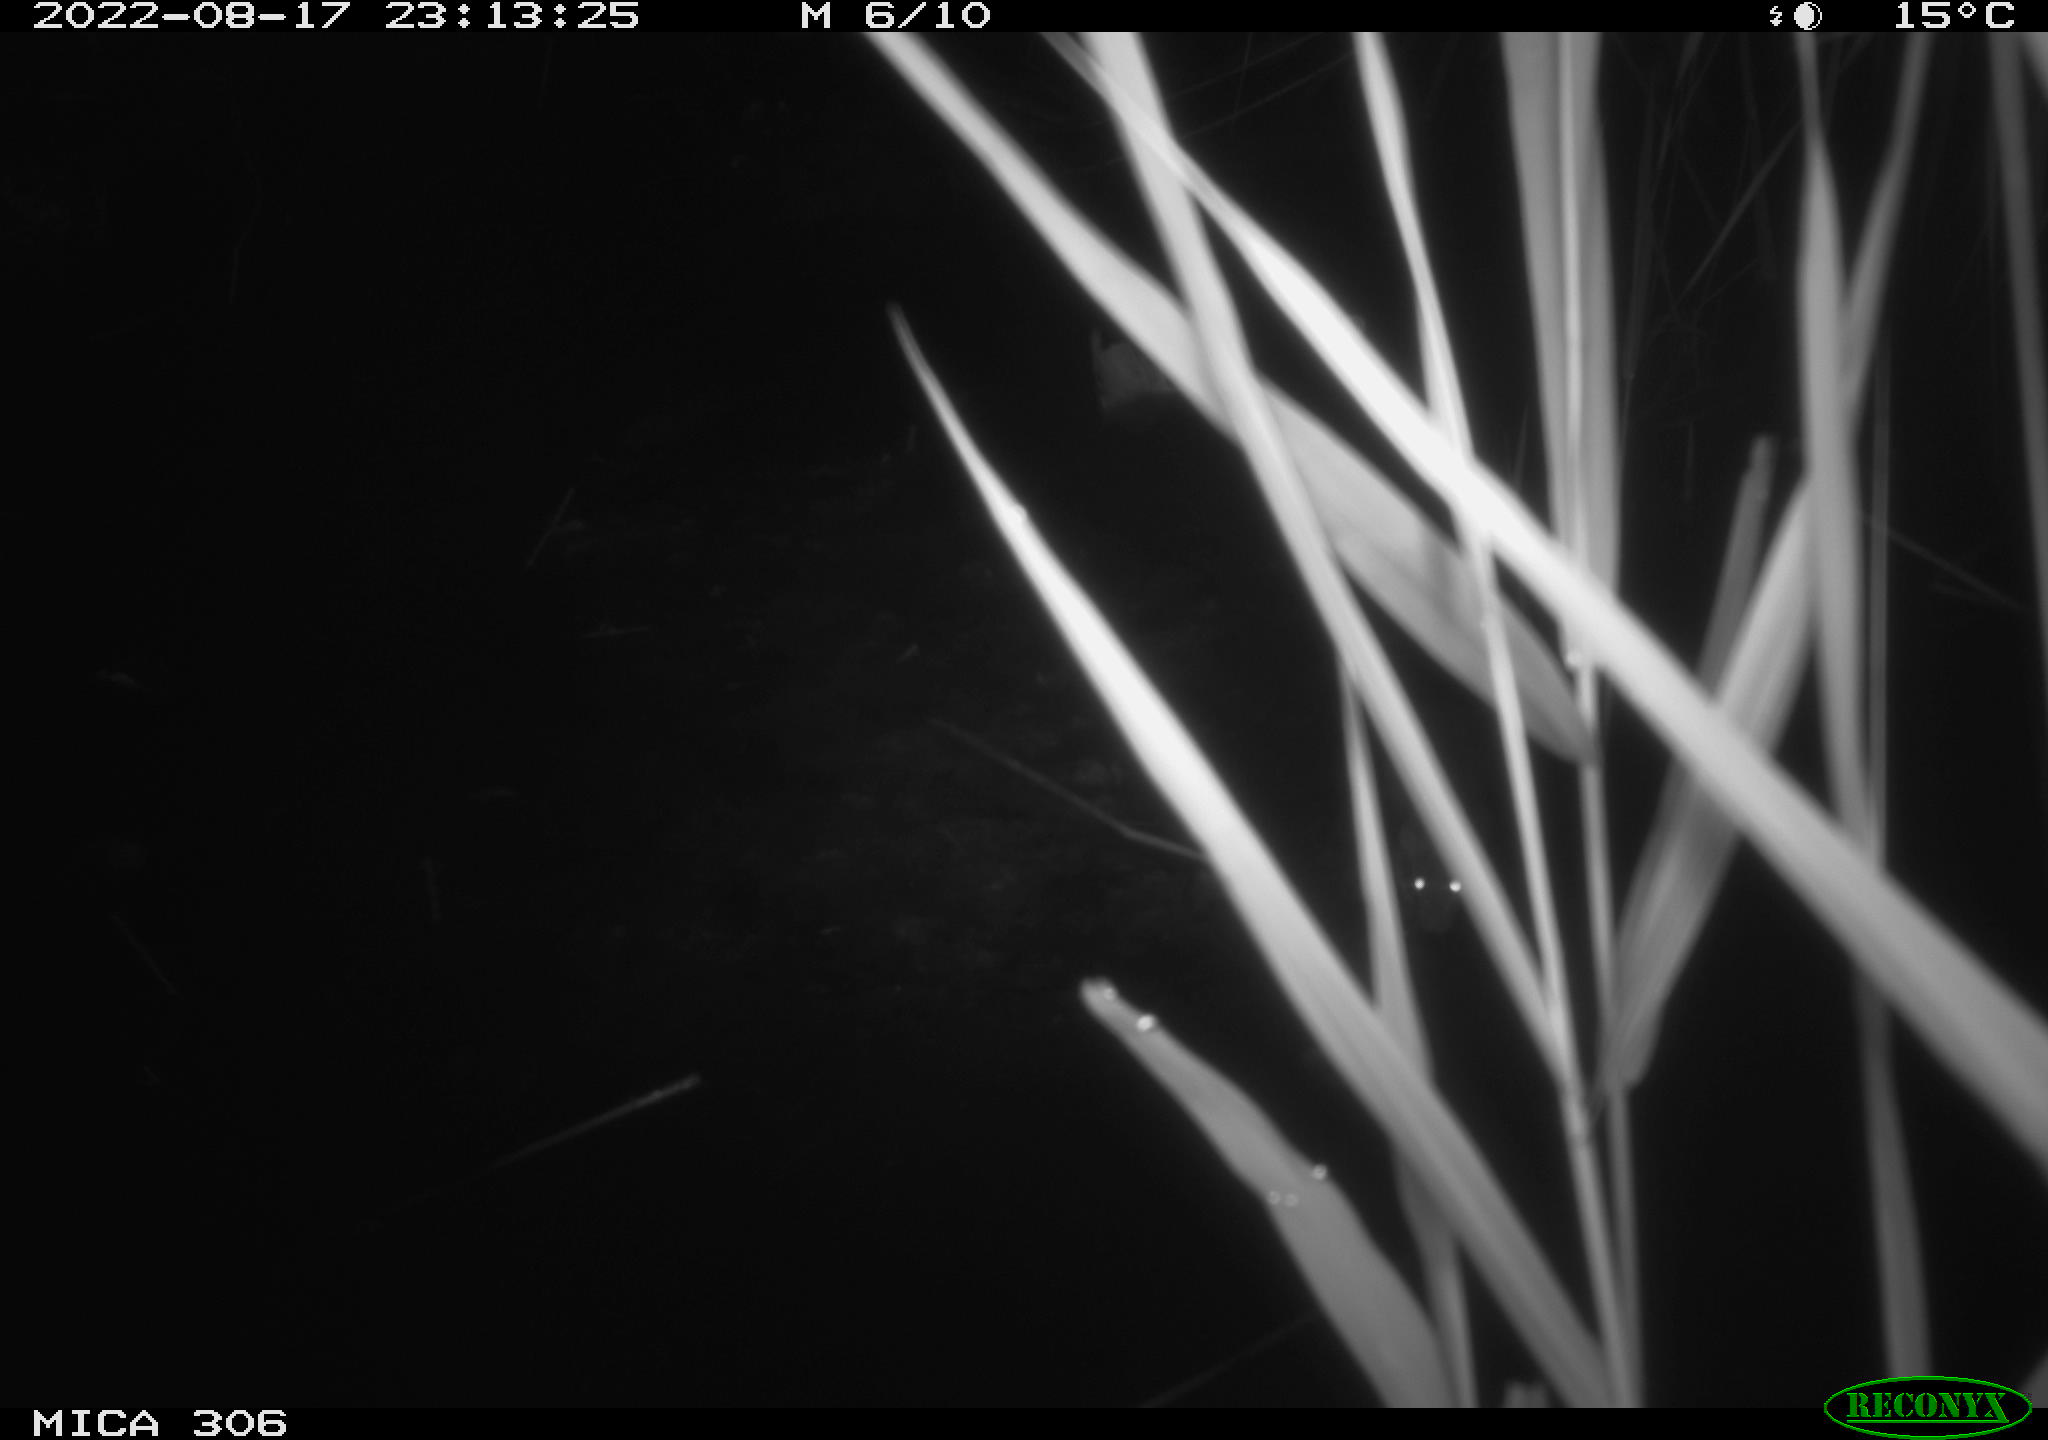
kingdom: Animalia
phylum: Chordata
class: Mammalia
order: Rodentia
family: Muridae
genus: Rattus
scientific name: Rattus norvegicus
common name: Brown rat
